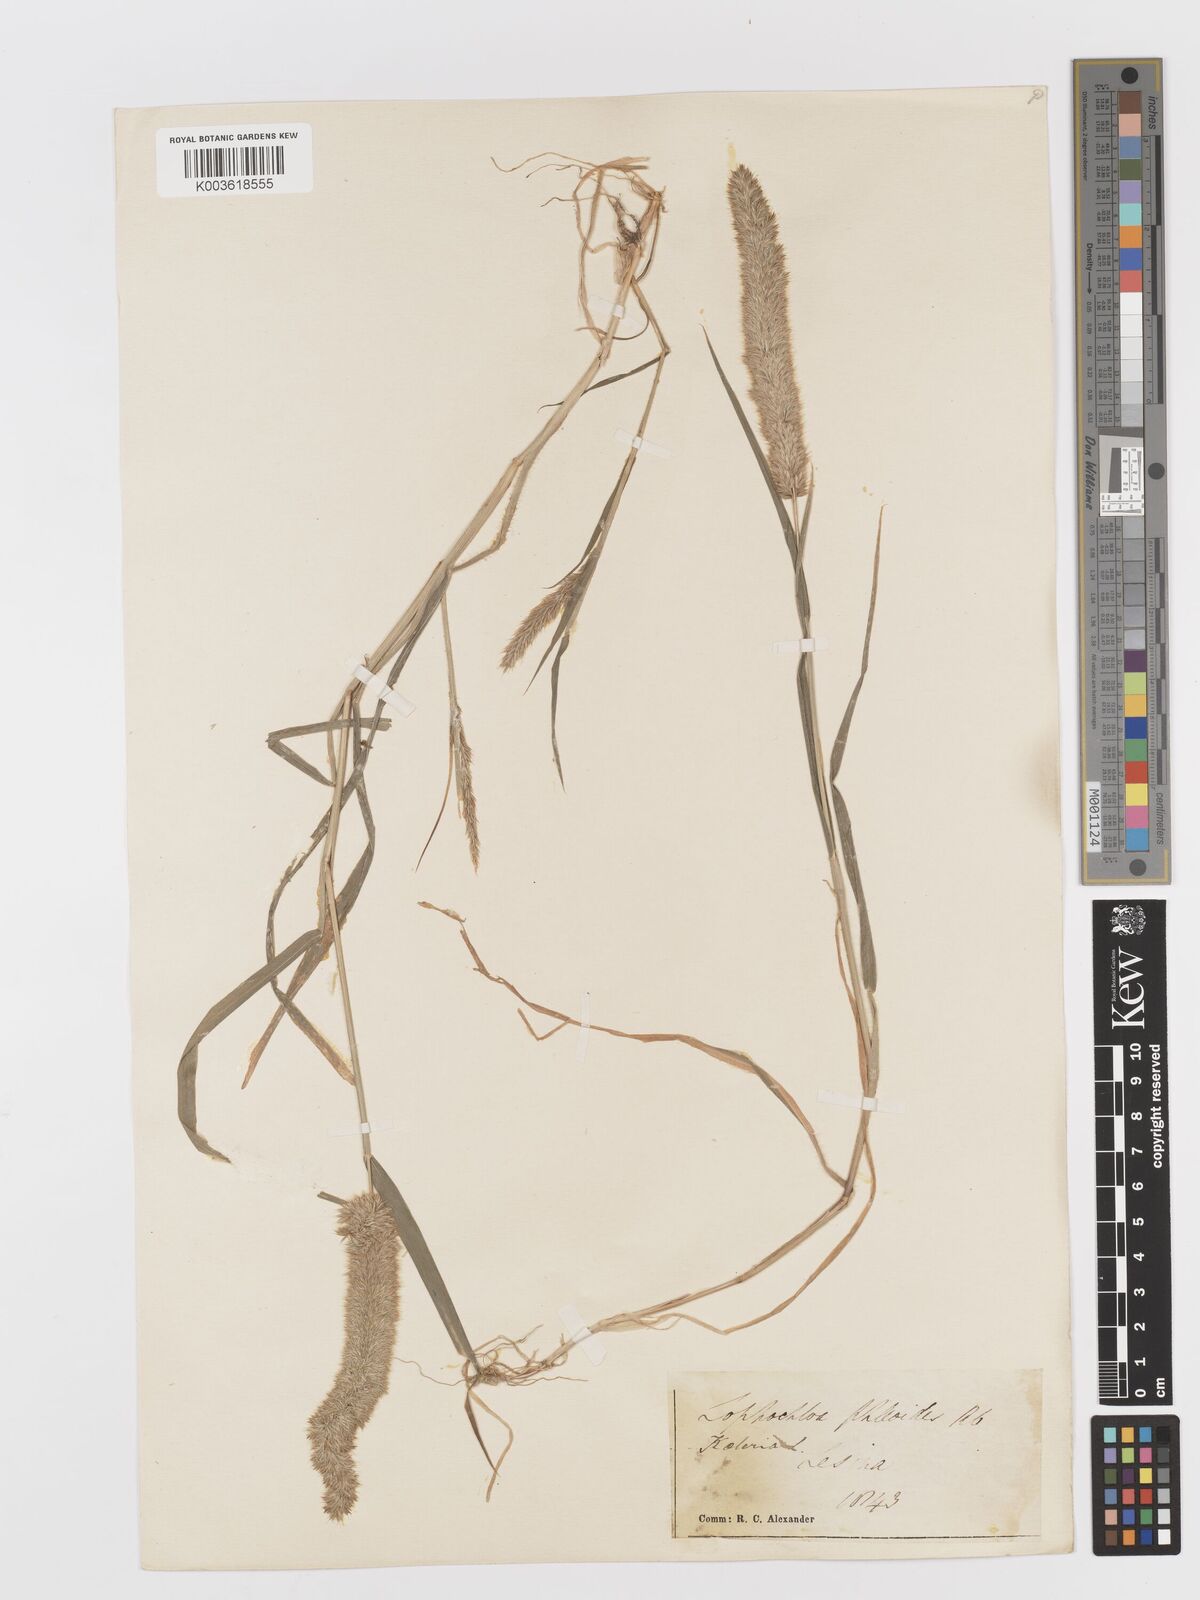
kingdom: Plantae
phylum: Tracheophyta
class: Liliopsida
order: Poales
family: Poaceae
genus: Rostraria
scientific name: Rostraria cristata
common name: Mediterranean hair-grass
